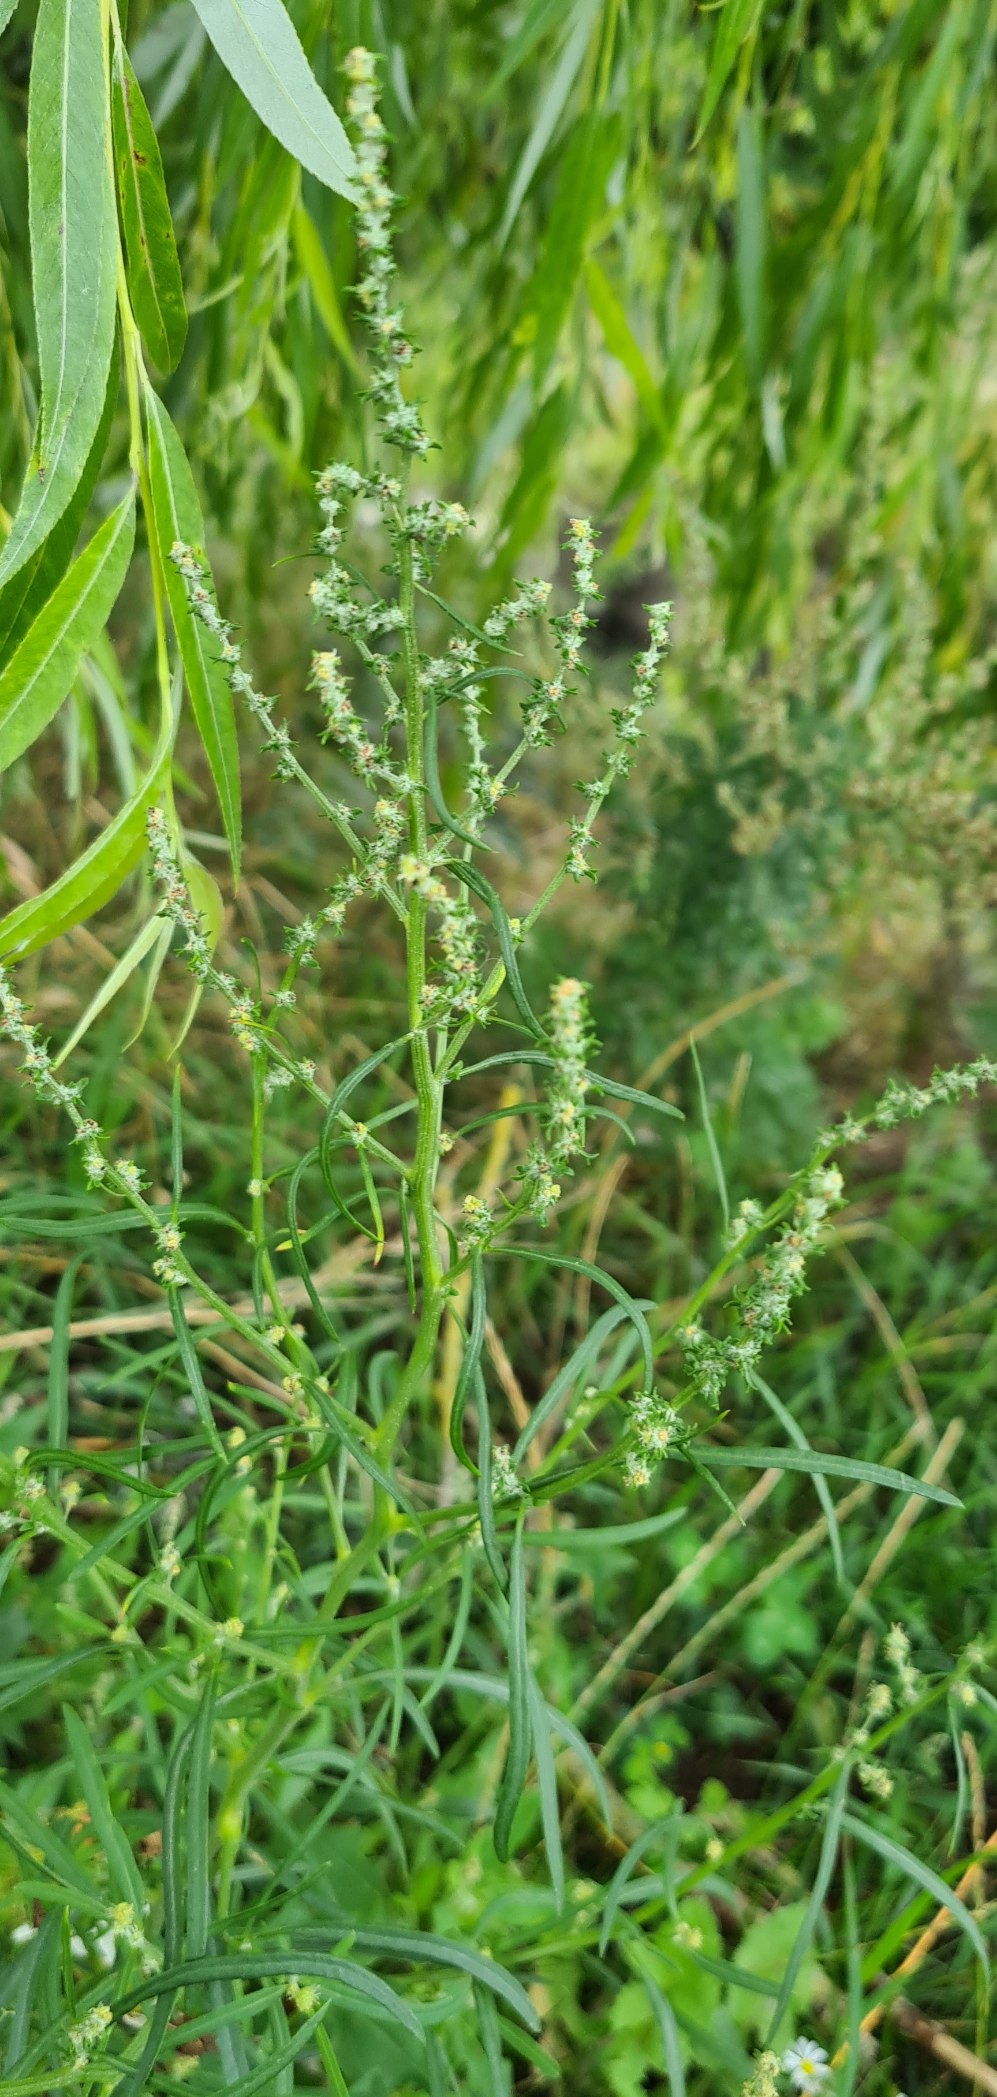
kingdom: Plantae
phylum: Tracheophyta
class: Magnoliopsida
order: Caryophyllales
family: Amaranthaceae
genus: Atriplex
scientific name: Atriplex littoralis
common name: Strand-mælde
